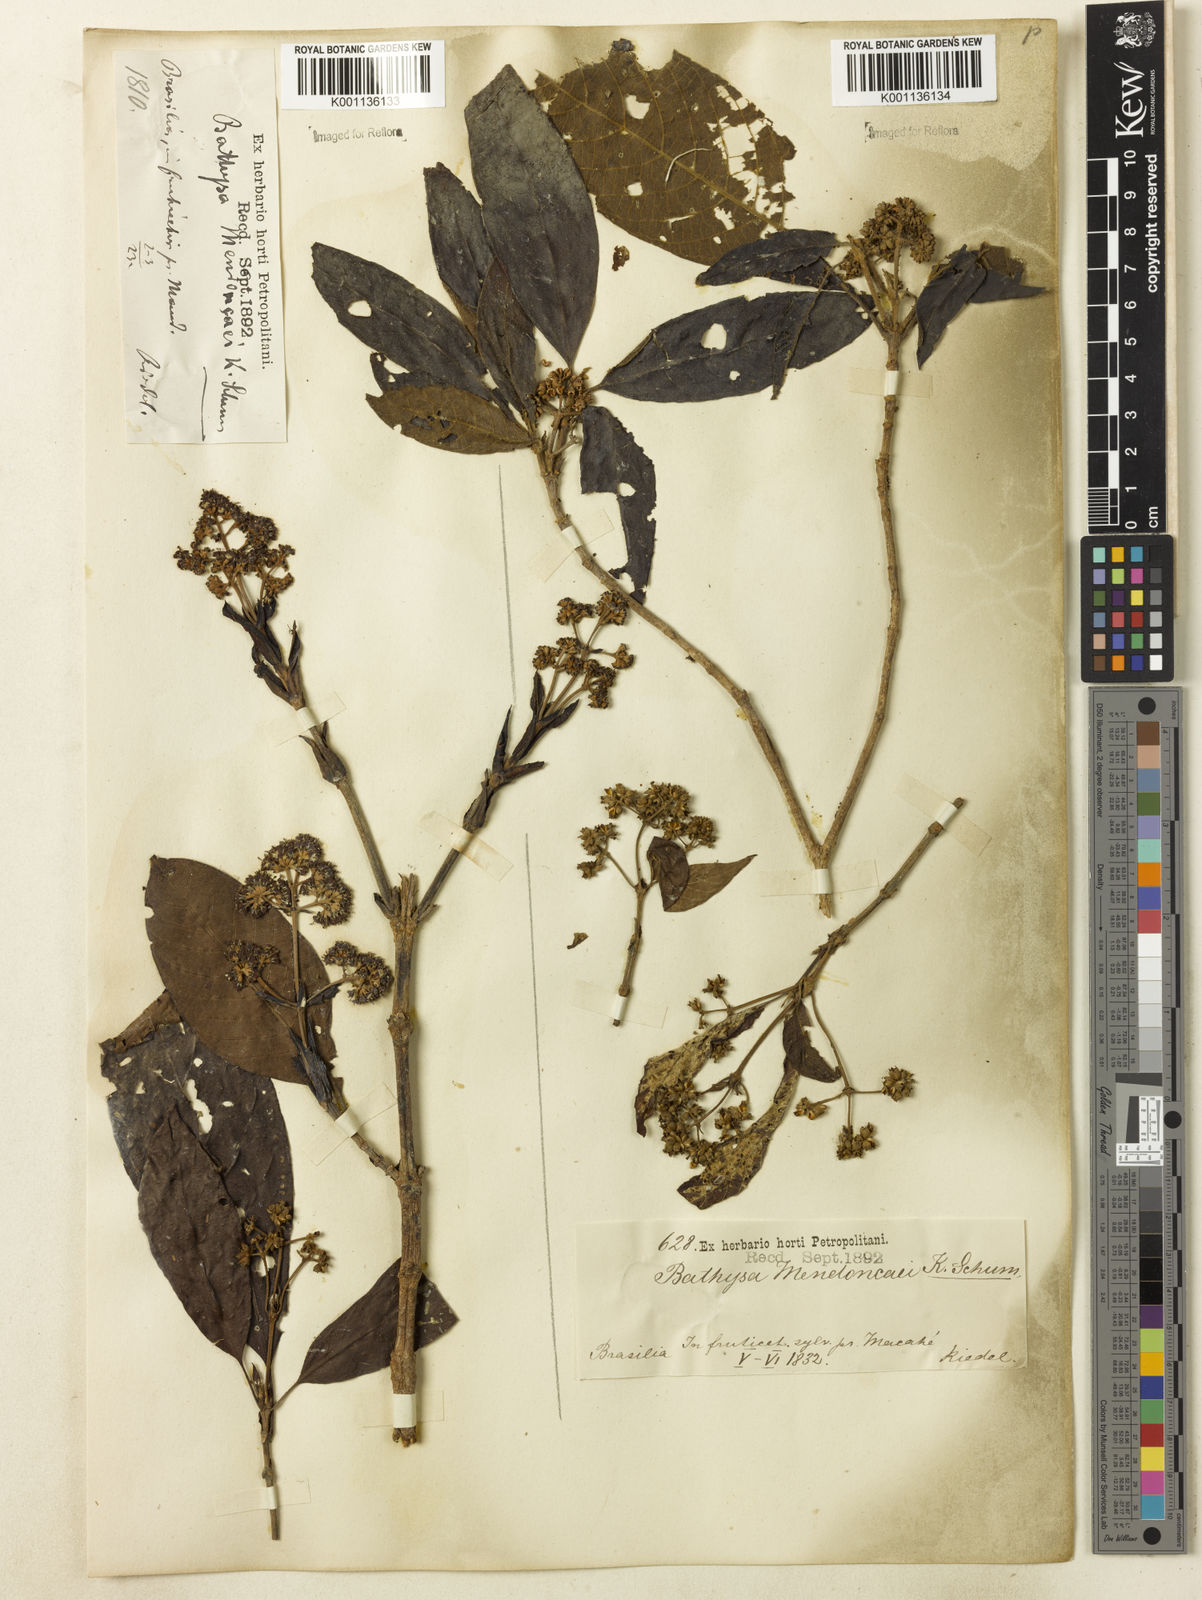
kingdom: Plantae
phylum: Tracheophyta
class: Magnoliopsida
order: Gentianales
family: Rubiaceae
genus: Bathysa
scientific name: Bathysa
